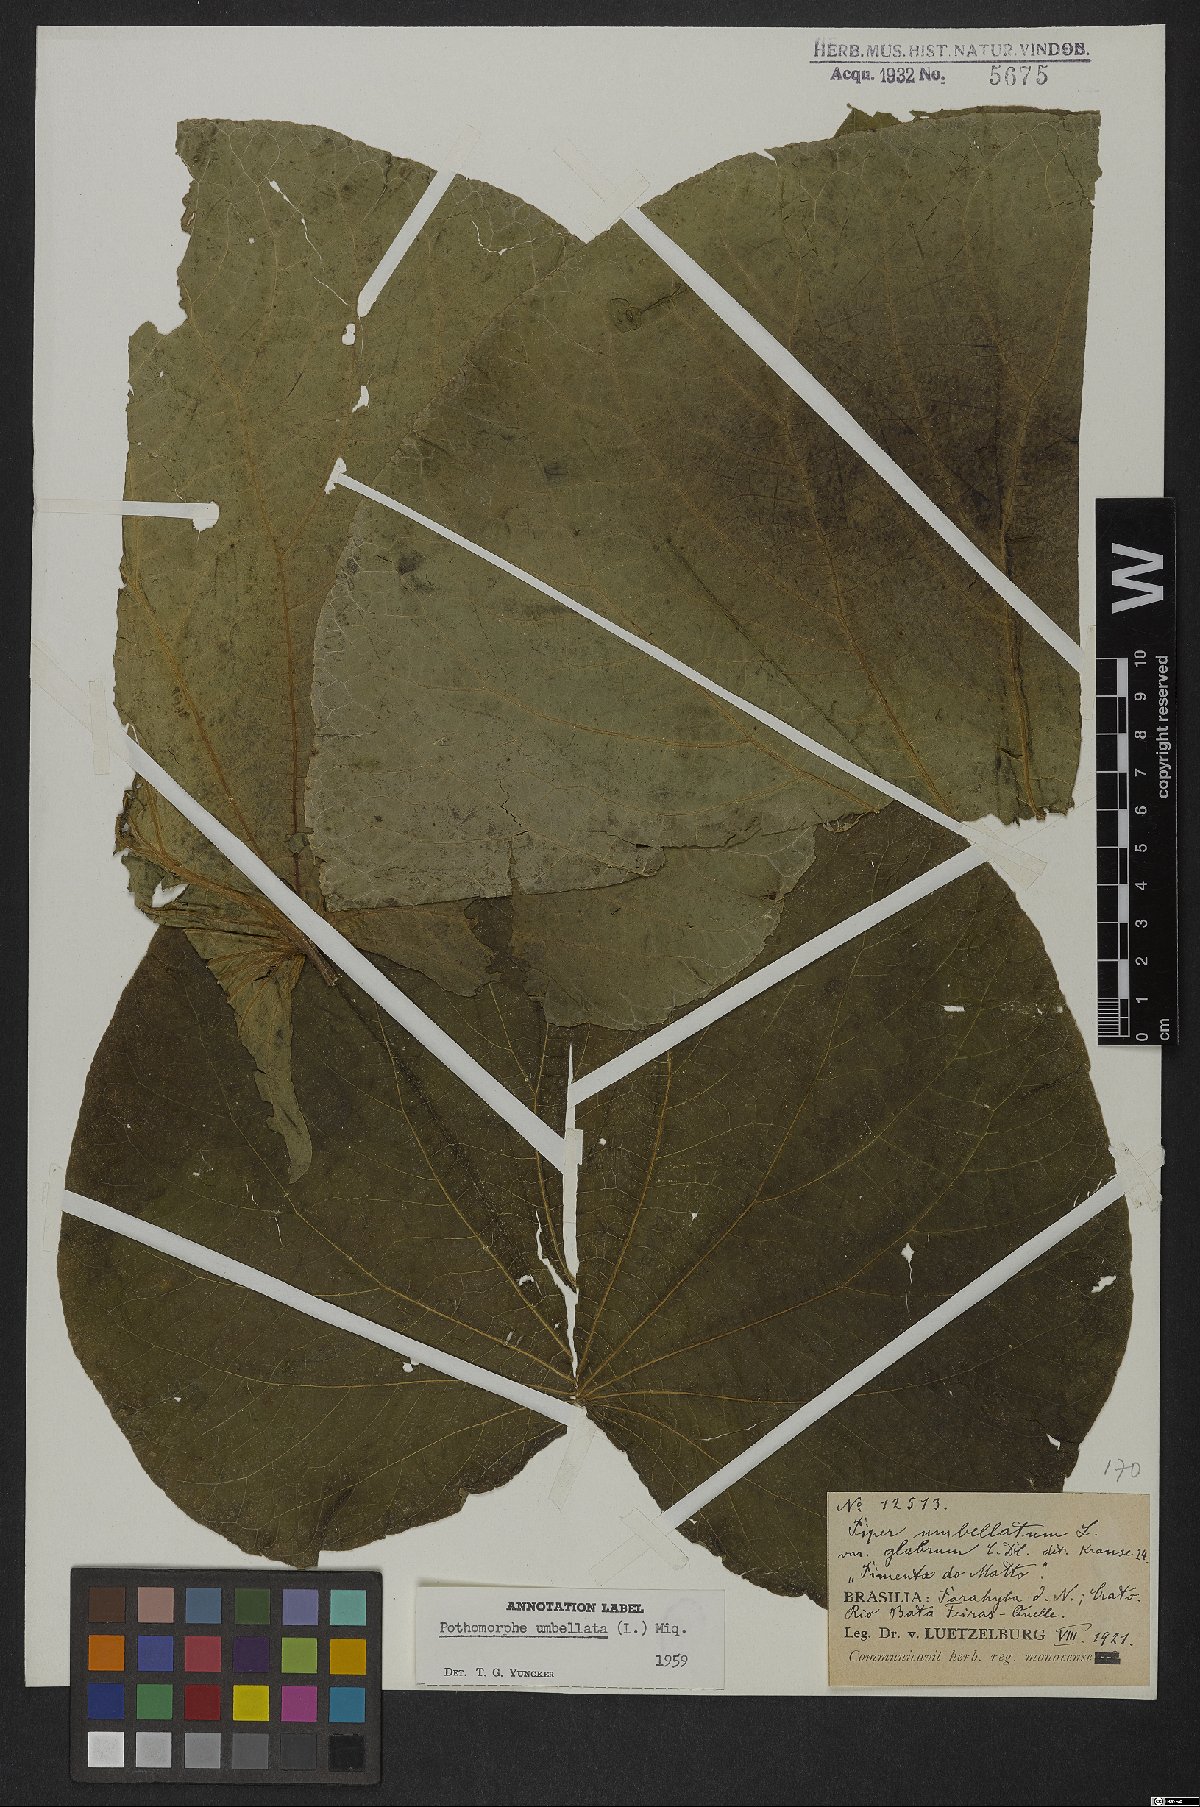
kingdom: Plantae
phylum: Tracheophyta
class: Magnoliopsida
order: Piperales
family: Piperaceae
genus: Piper
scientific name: Piper umbellatum
